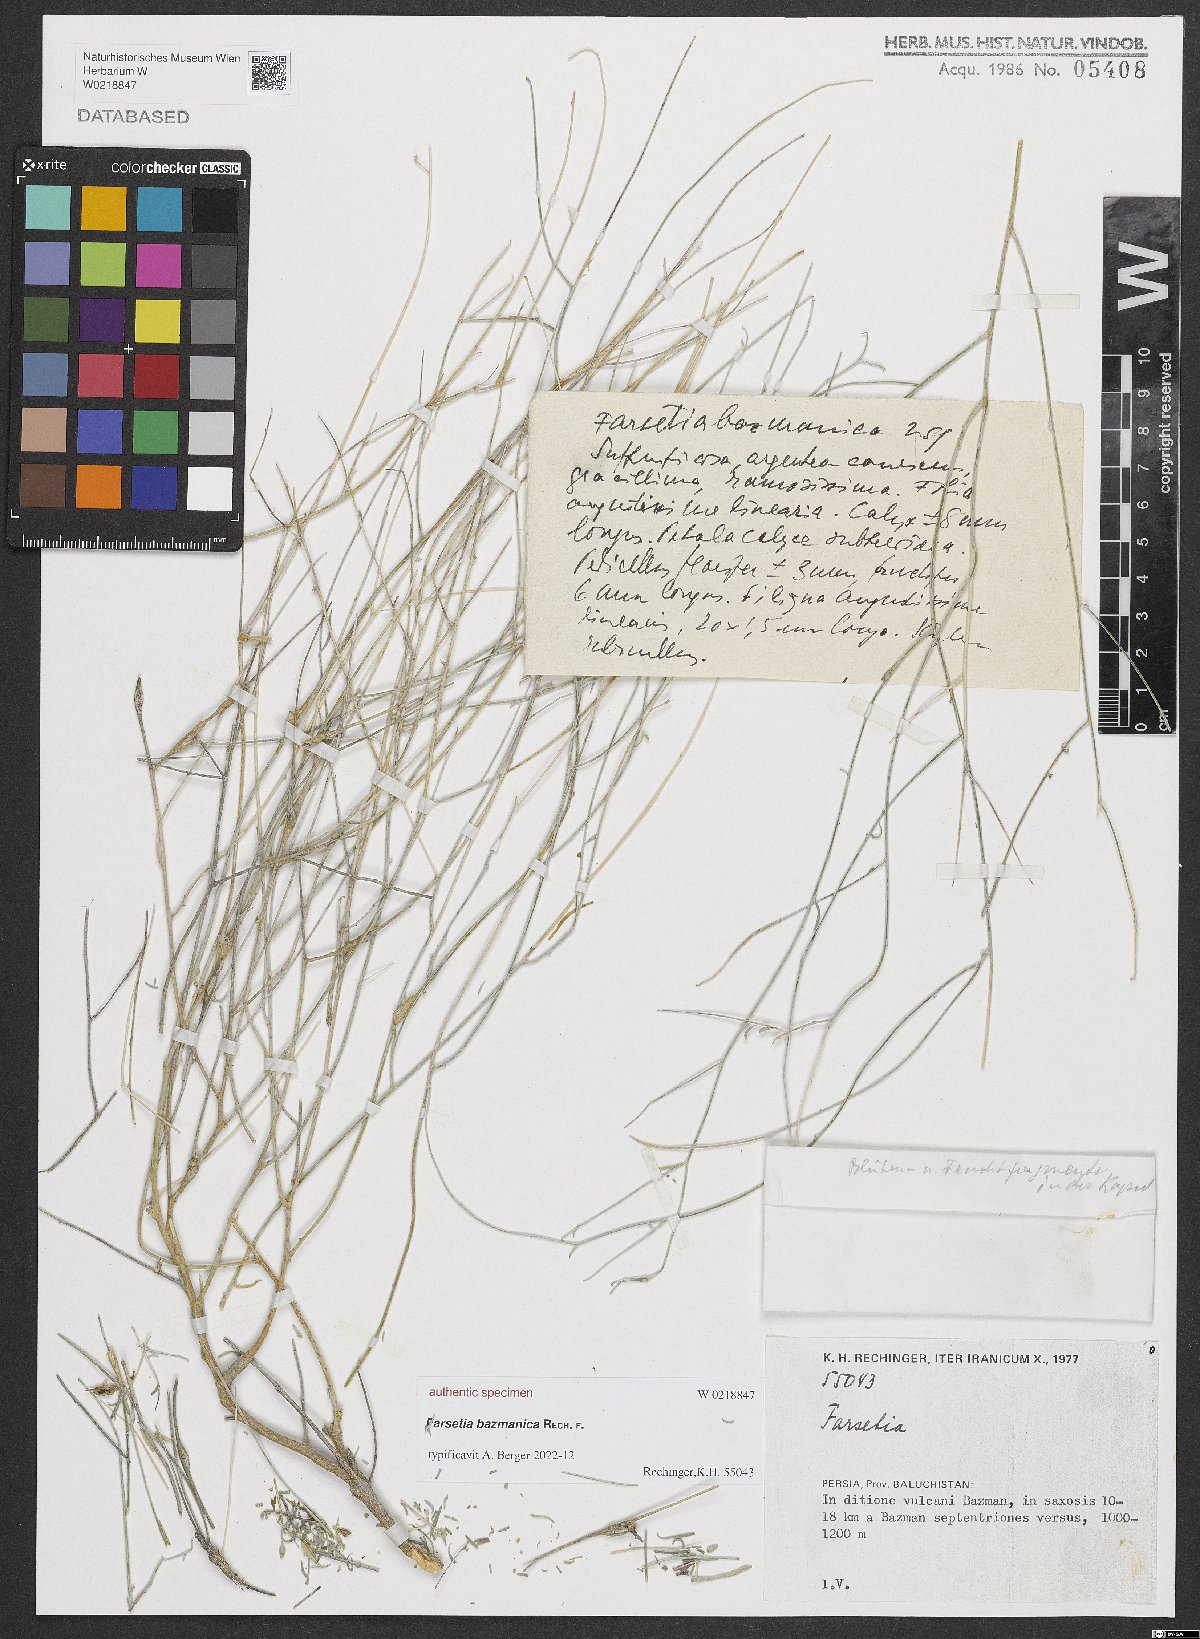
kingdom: Plantae
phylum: Tracheophyta
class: Magnoliopsida
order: Brassicales
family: Brassicaceae
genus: Farsetia
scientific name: Farsetia
